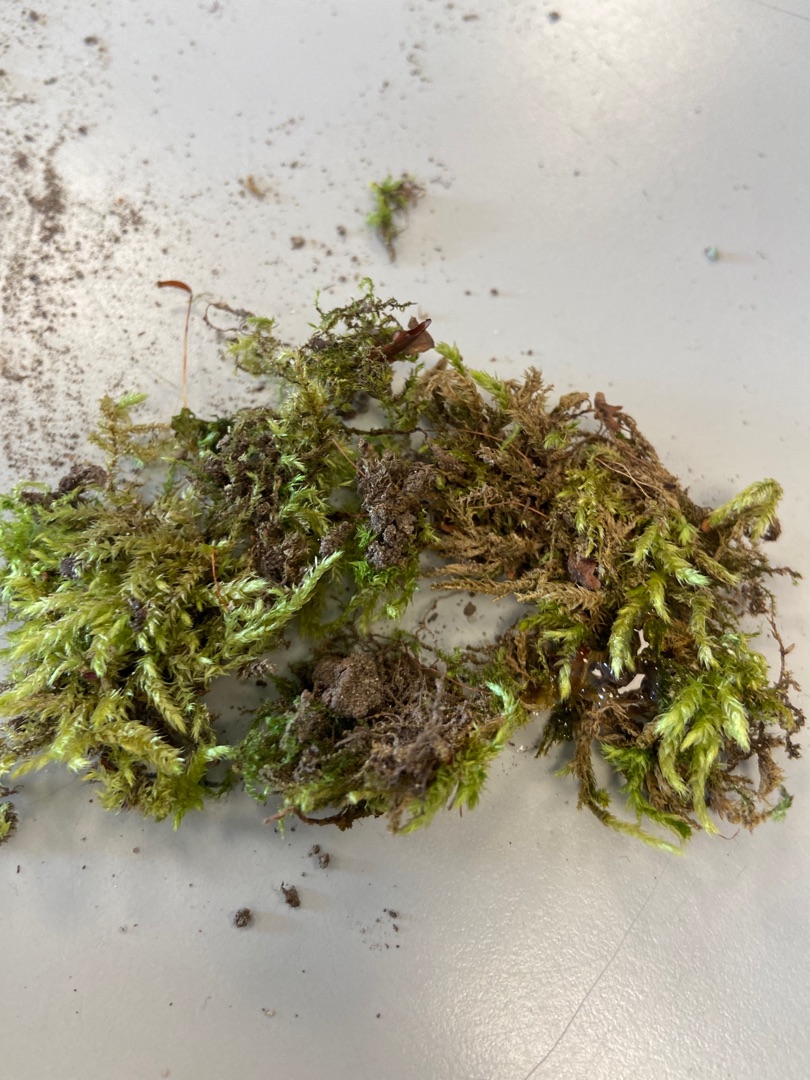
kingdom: Plantae
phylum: Bryophyta
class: Bryopsida
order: Hypnales
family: Brachytheciaceae
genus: Brachythecium
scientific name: Brachythecium rutabulum
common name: Almindelig kortkapsel
